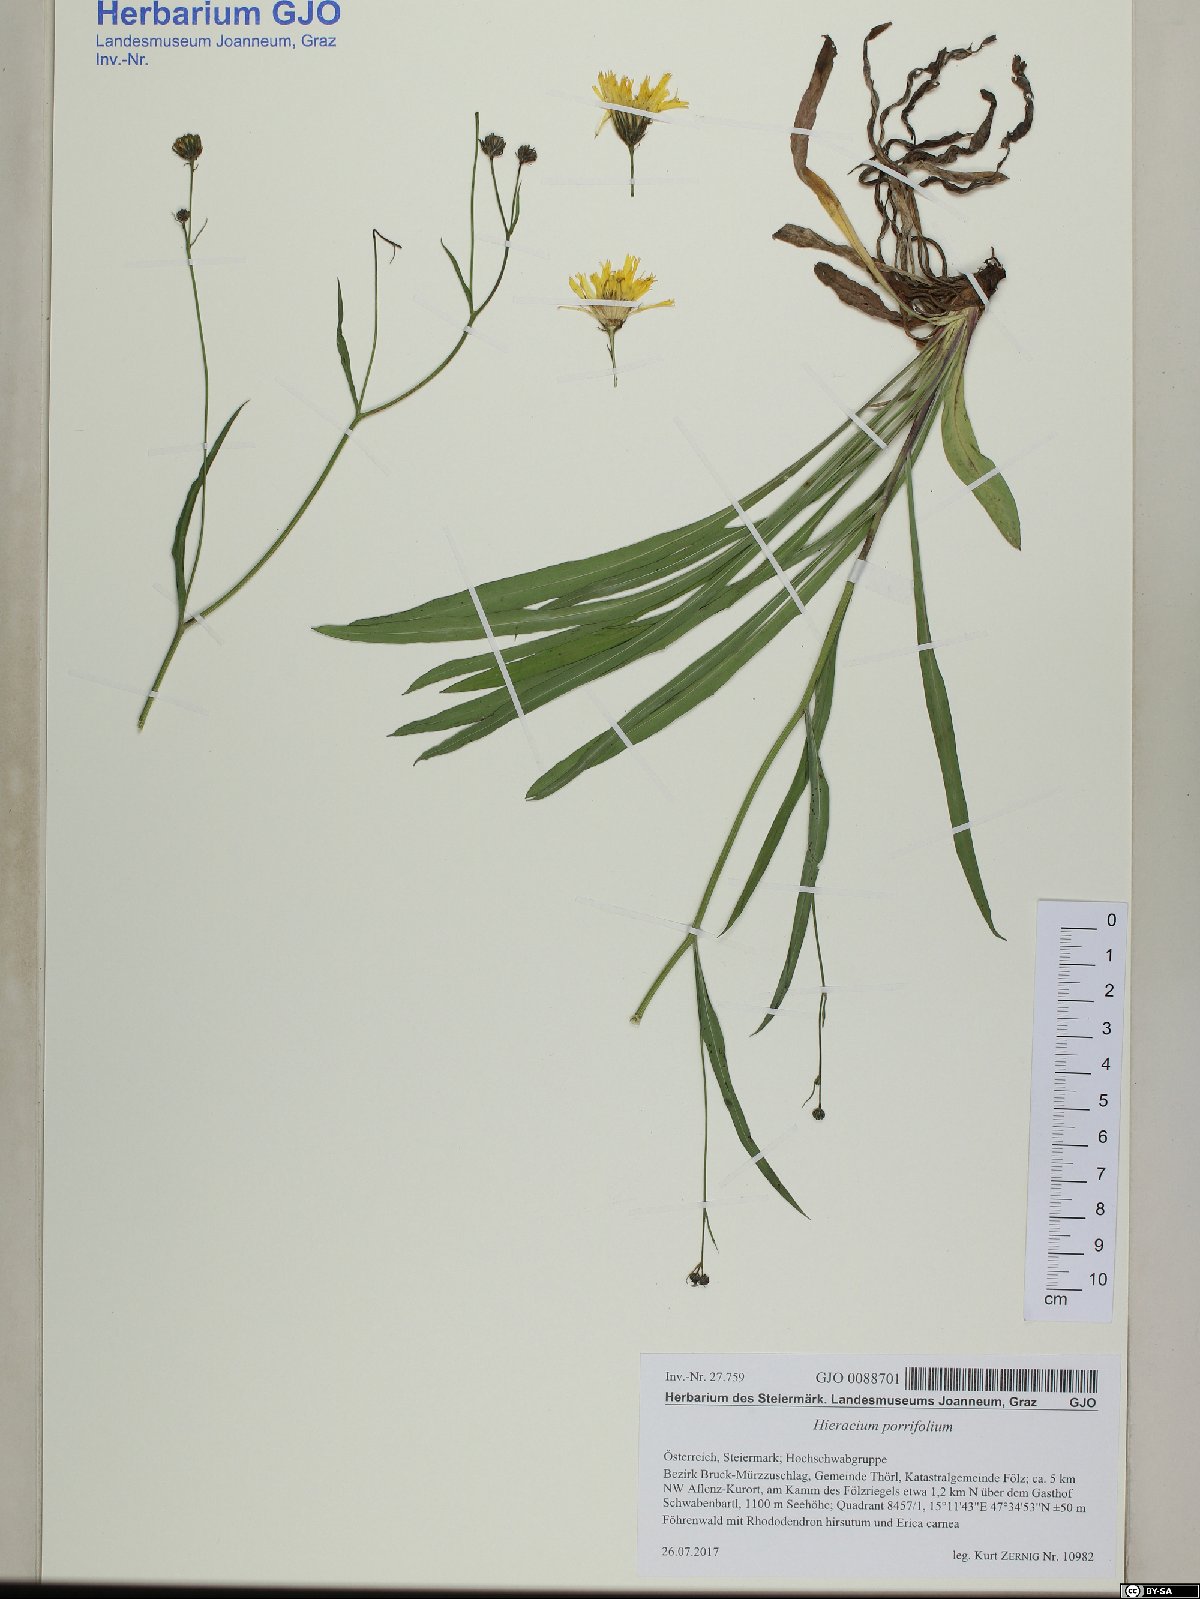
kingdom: Plantae
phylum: Tracheophyta
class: Magnoliopsida
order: Asterales
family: Asteraceae
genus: Hieracium
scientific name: Hieracium porrifolium
